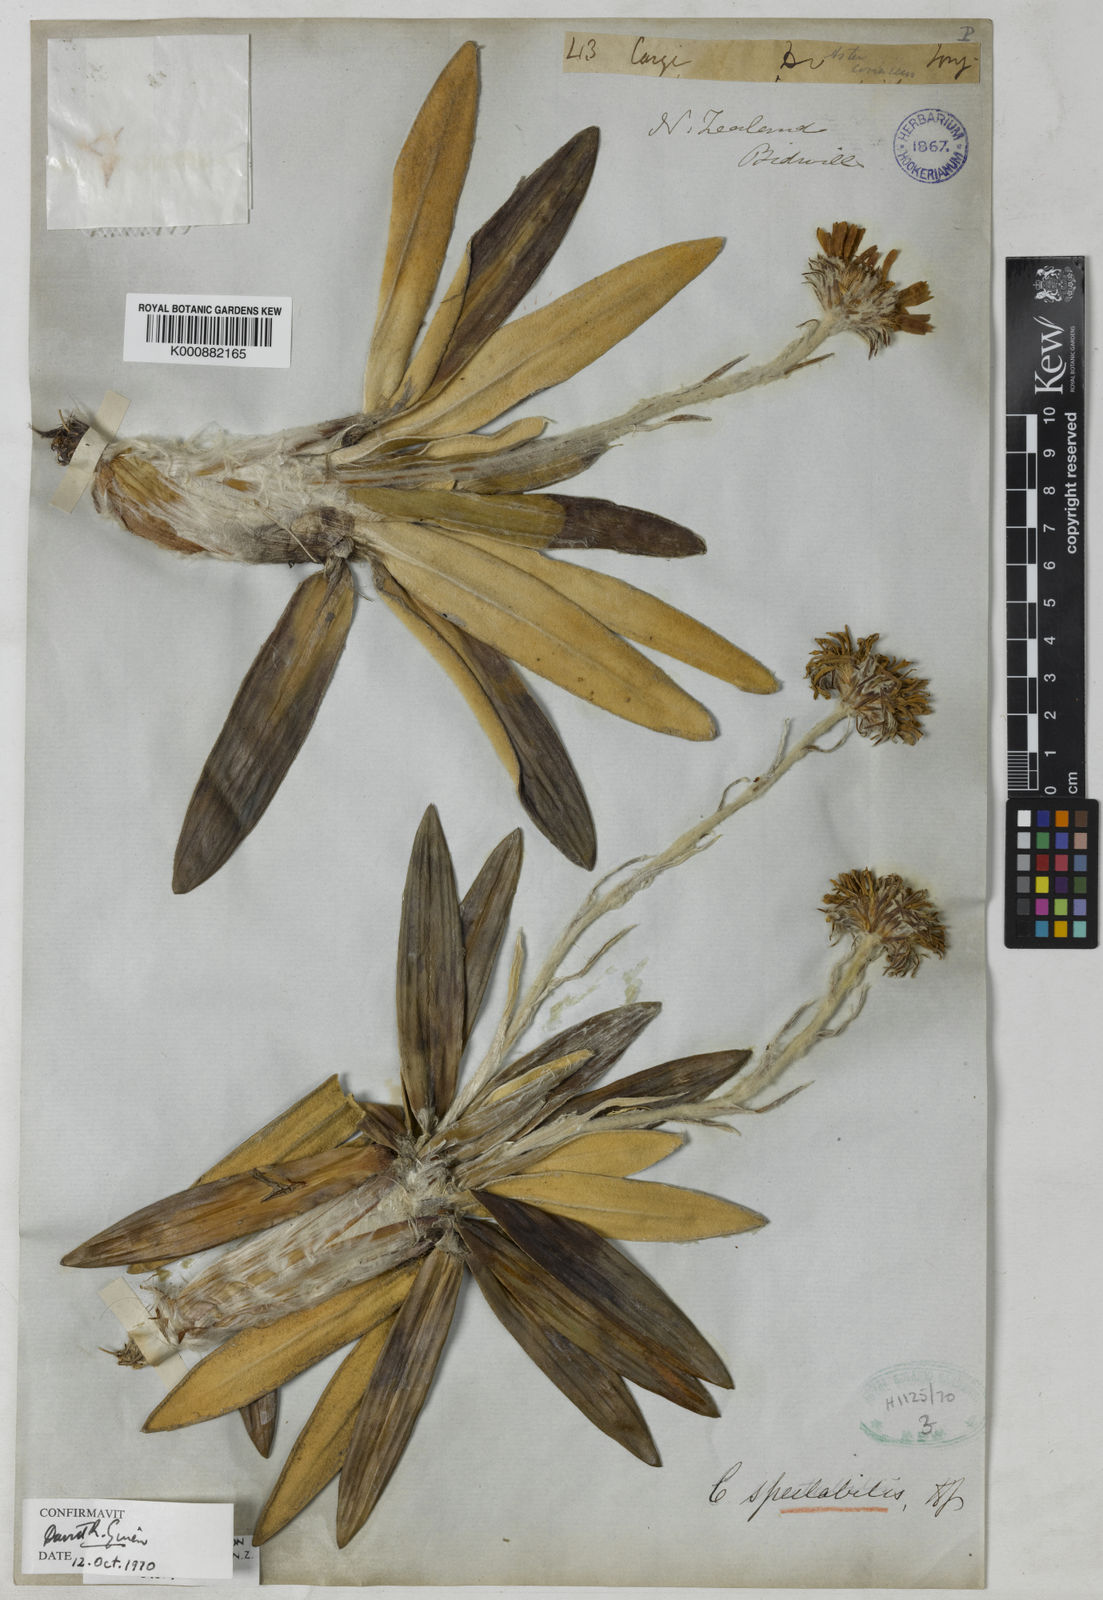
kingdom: Plantae
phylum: Tracheophyta
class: Magnoliopsida
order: Asterales
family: Asteraceae
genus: Celmisia
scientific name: Celmisia spectabilis
